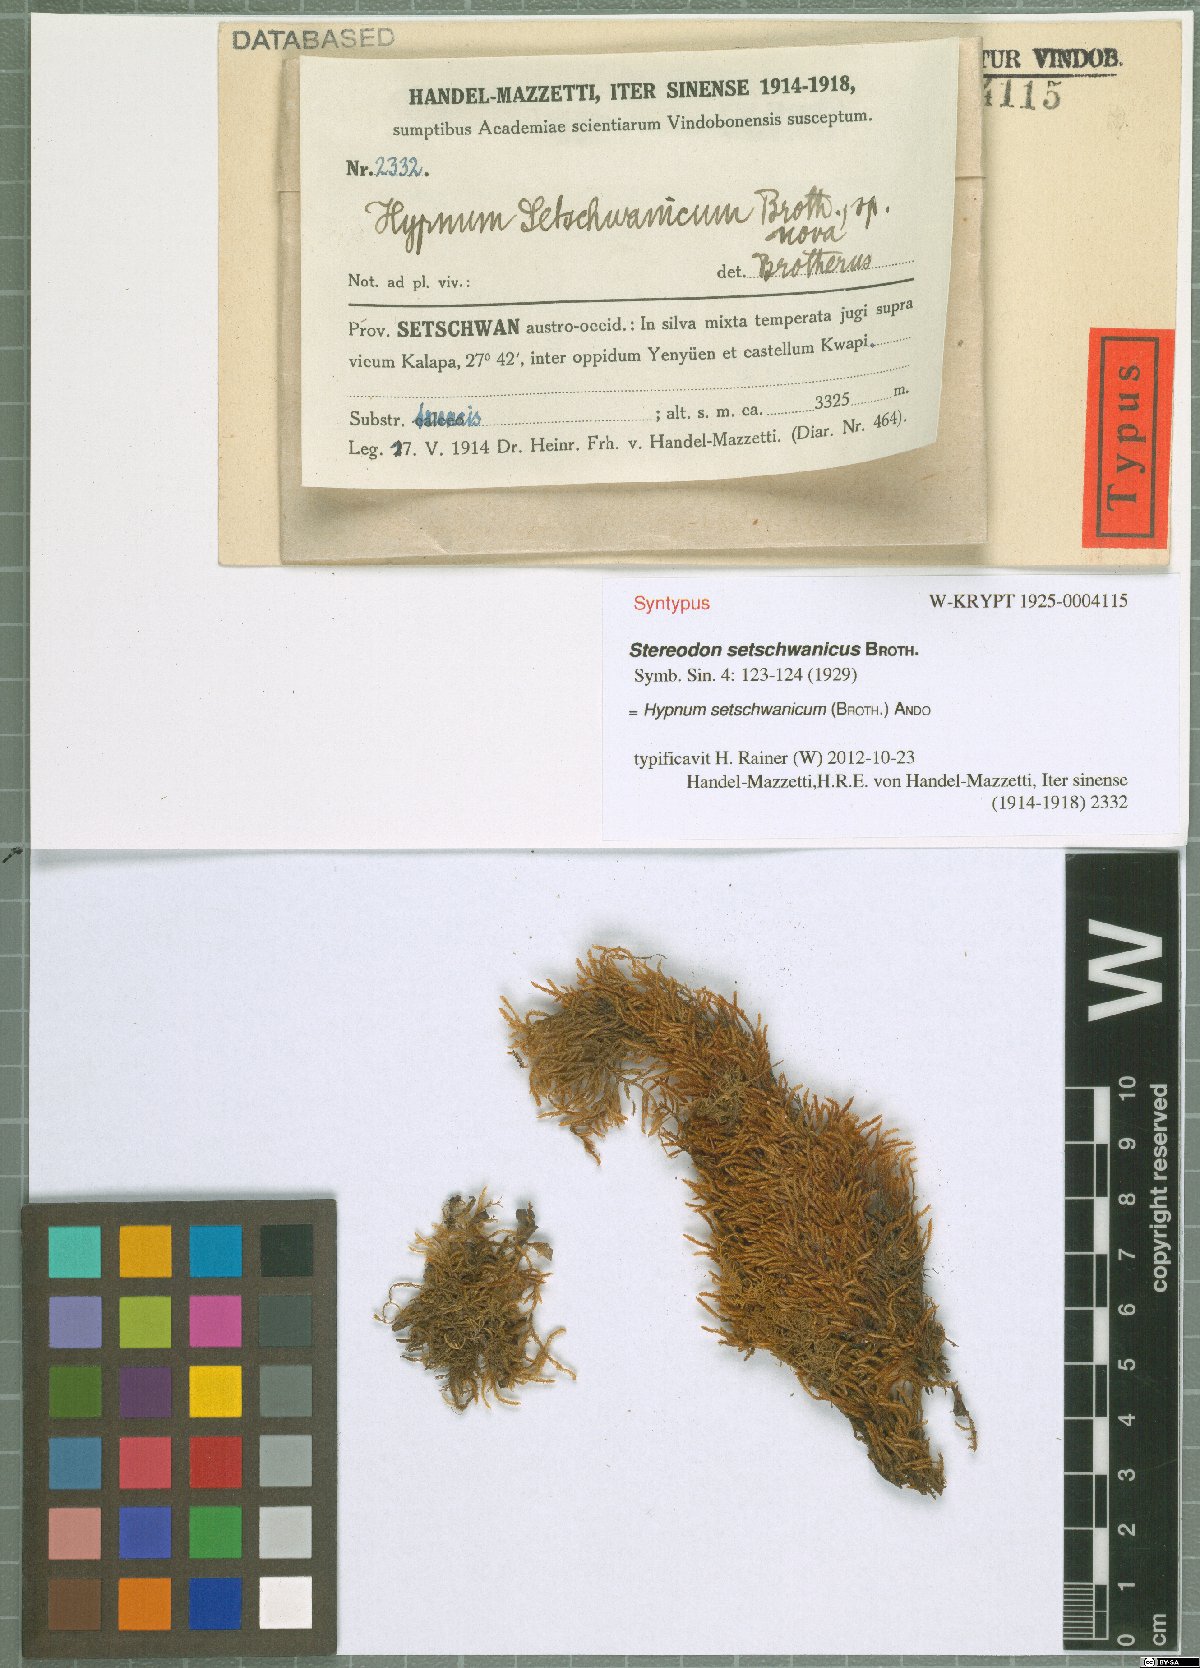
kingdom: Plantae
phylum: Bryophyta
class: Bryopsida
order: Hypnales
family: Hypnaceae
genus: Hypnum
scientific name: Hypnum setschwanicum
